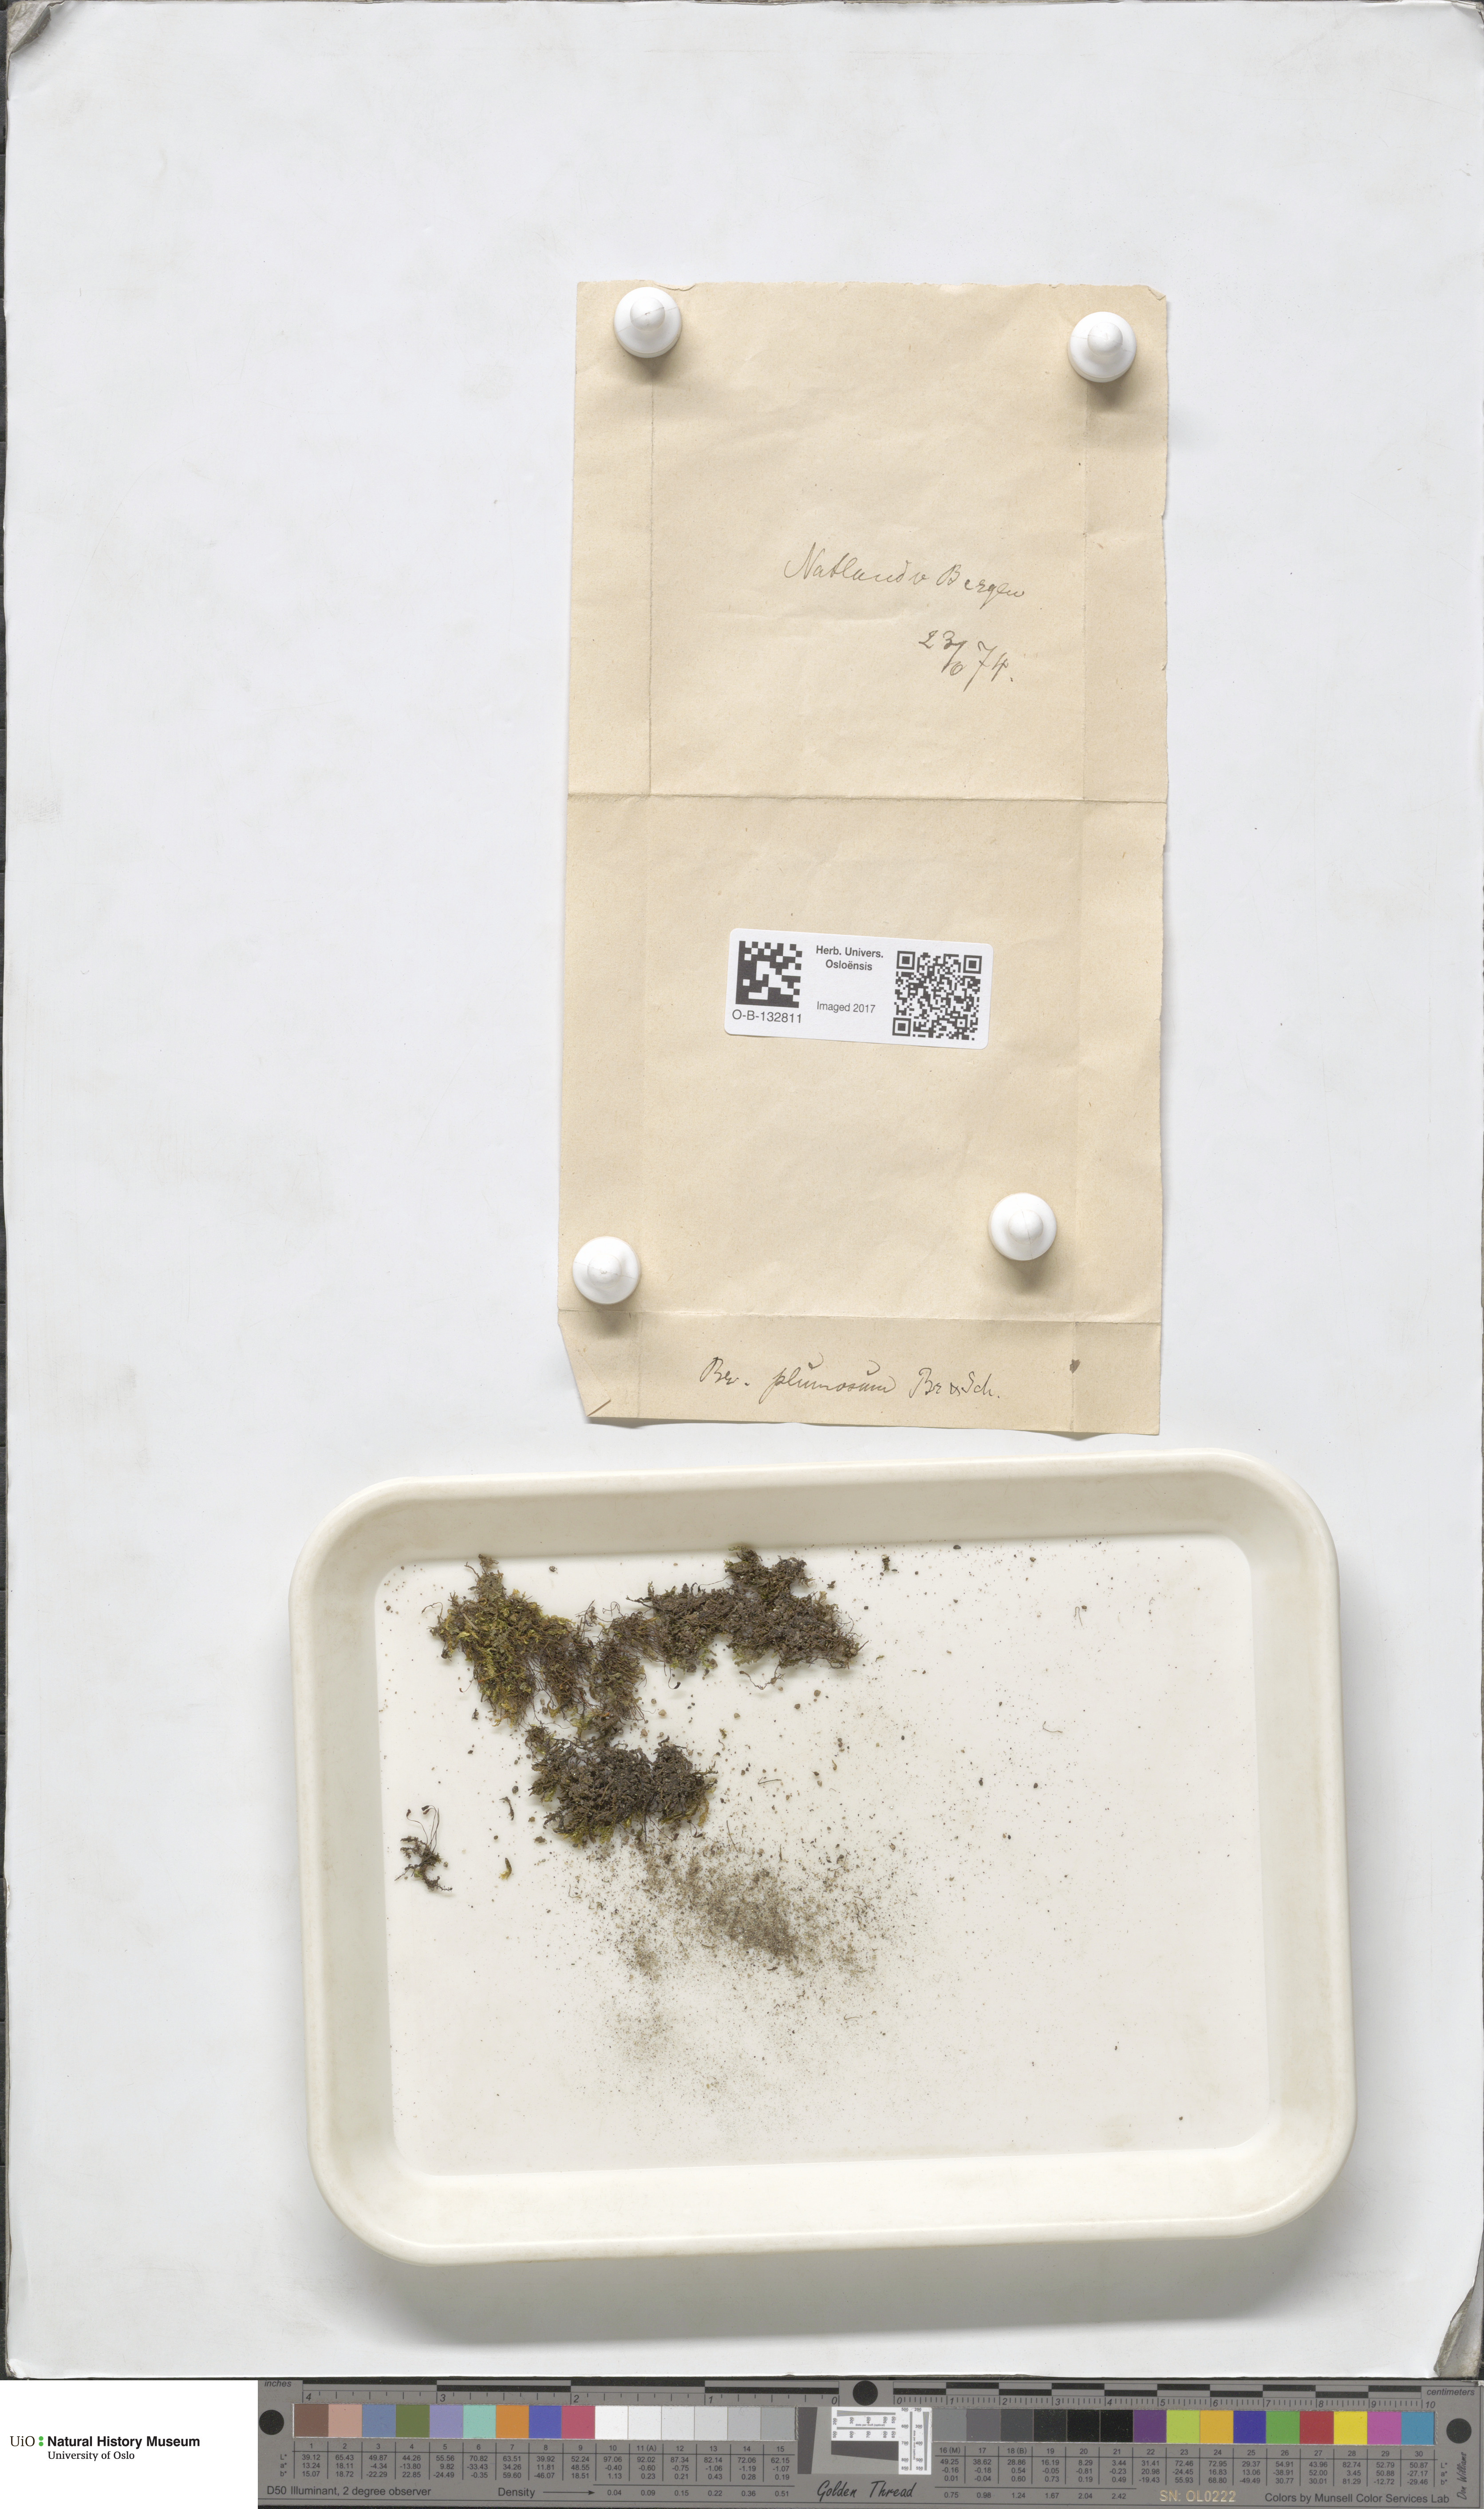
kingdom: Plantae
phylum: Bryophyta
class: Bryopsida
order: Hypnales
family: Brachytheciaceae
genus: Sciuro-hypnum
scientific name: Sciuro-hypnum plumosum
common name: Rusty feather-moss
